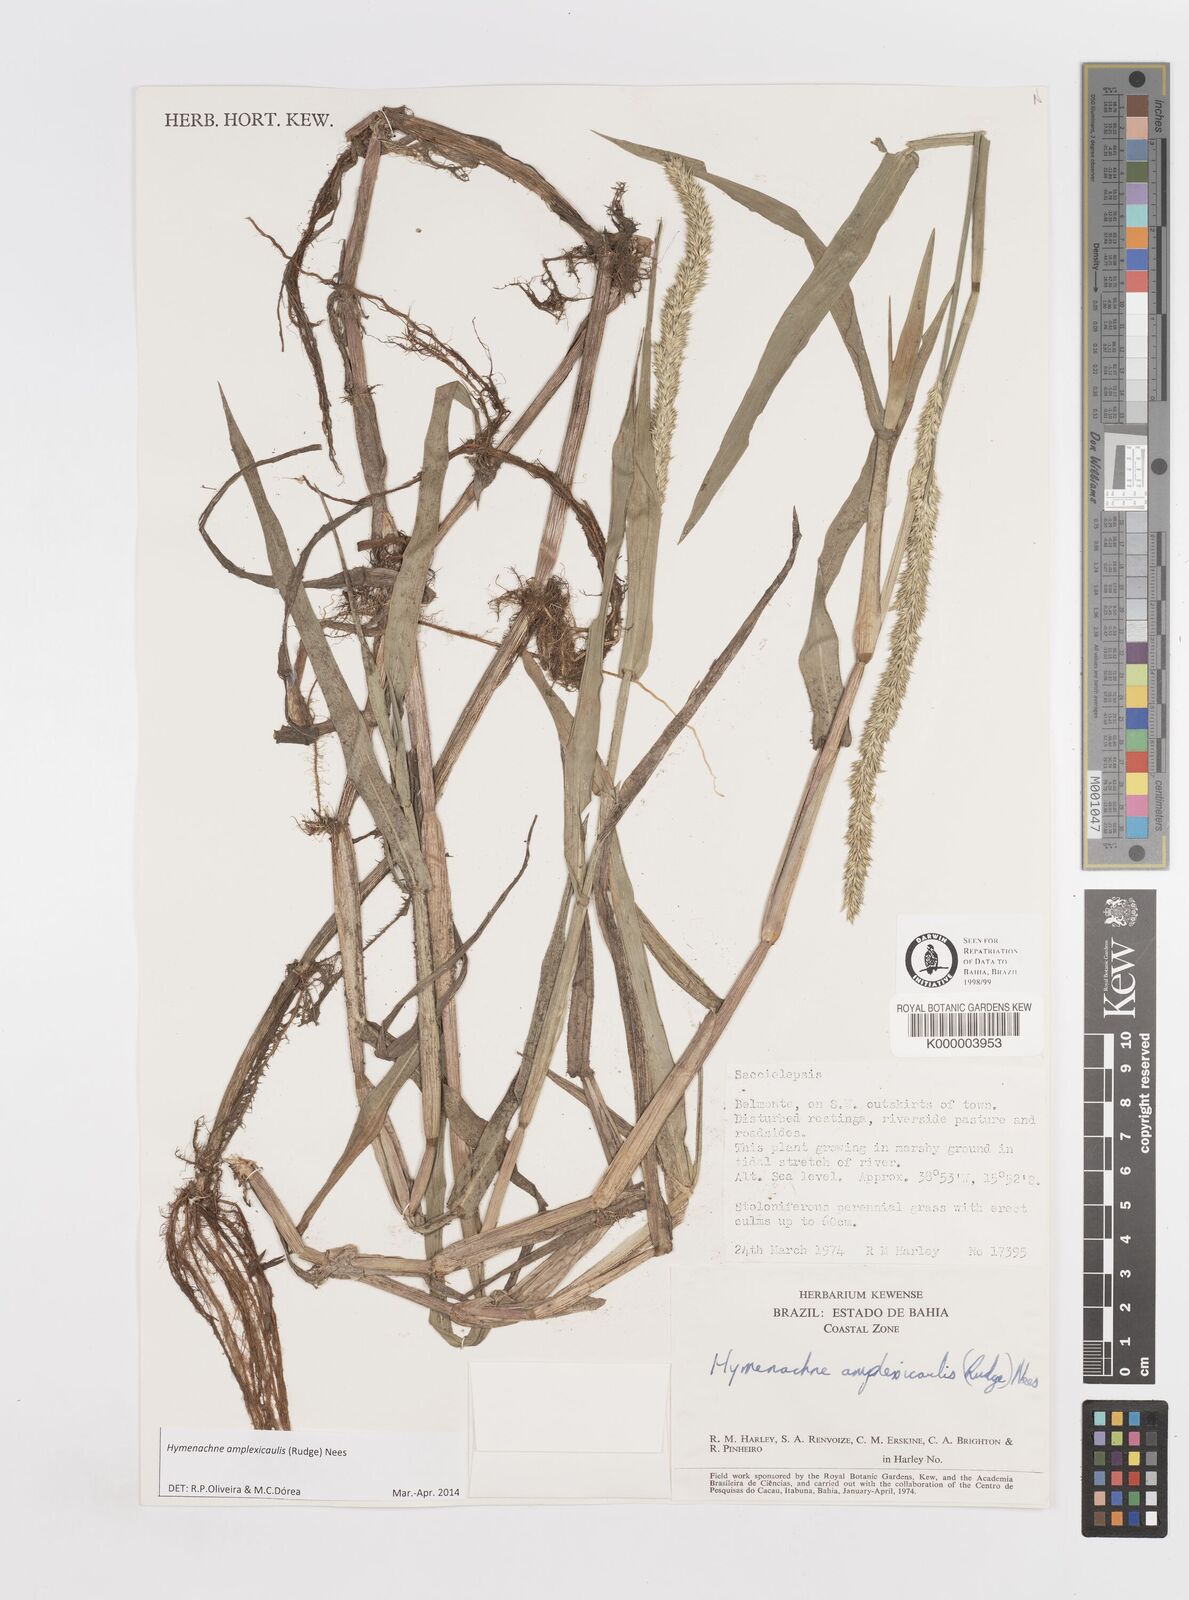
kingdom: Plantae
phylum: Tracheophyta
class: Liliopsida
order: Poales
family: Poaceae
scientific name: Poaceae
